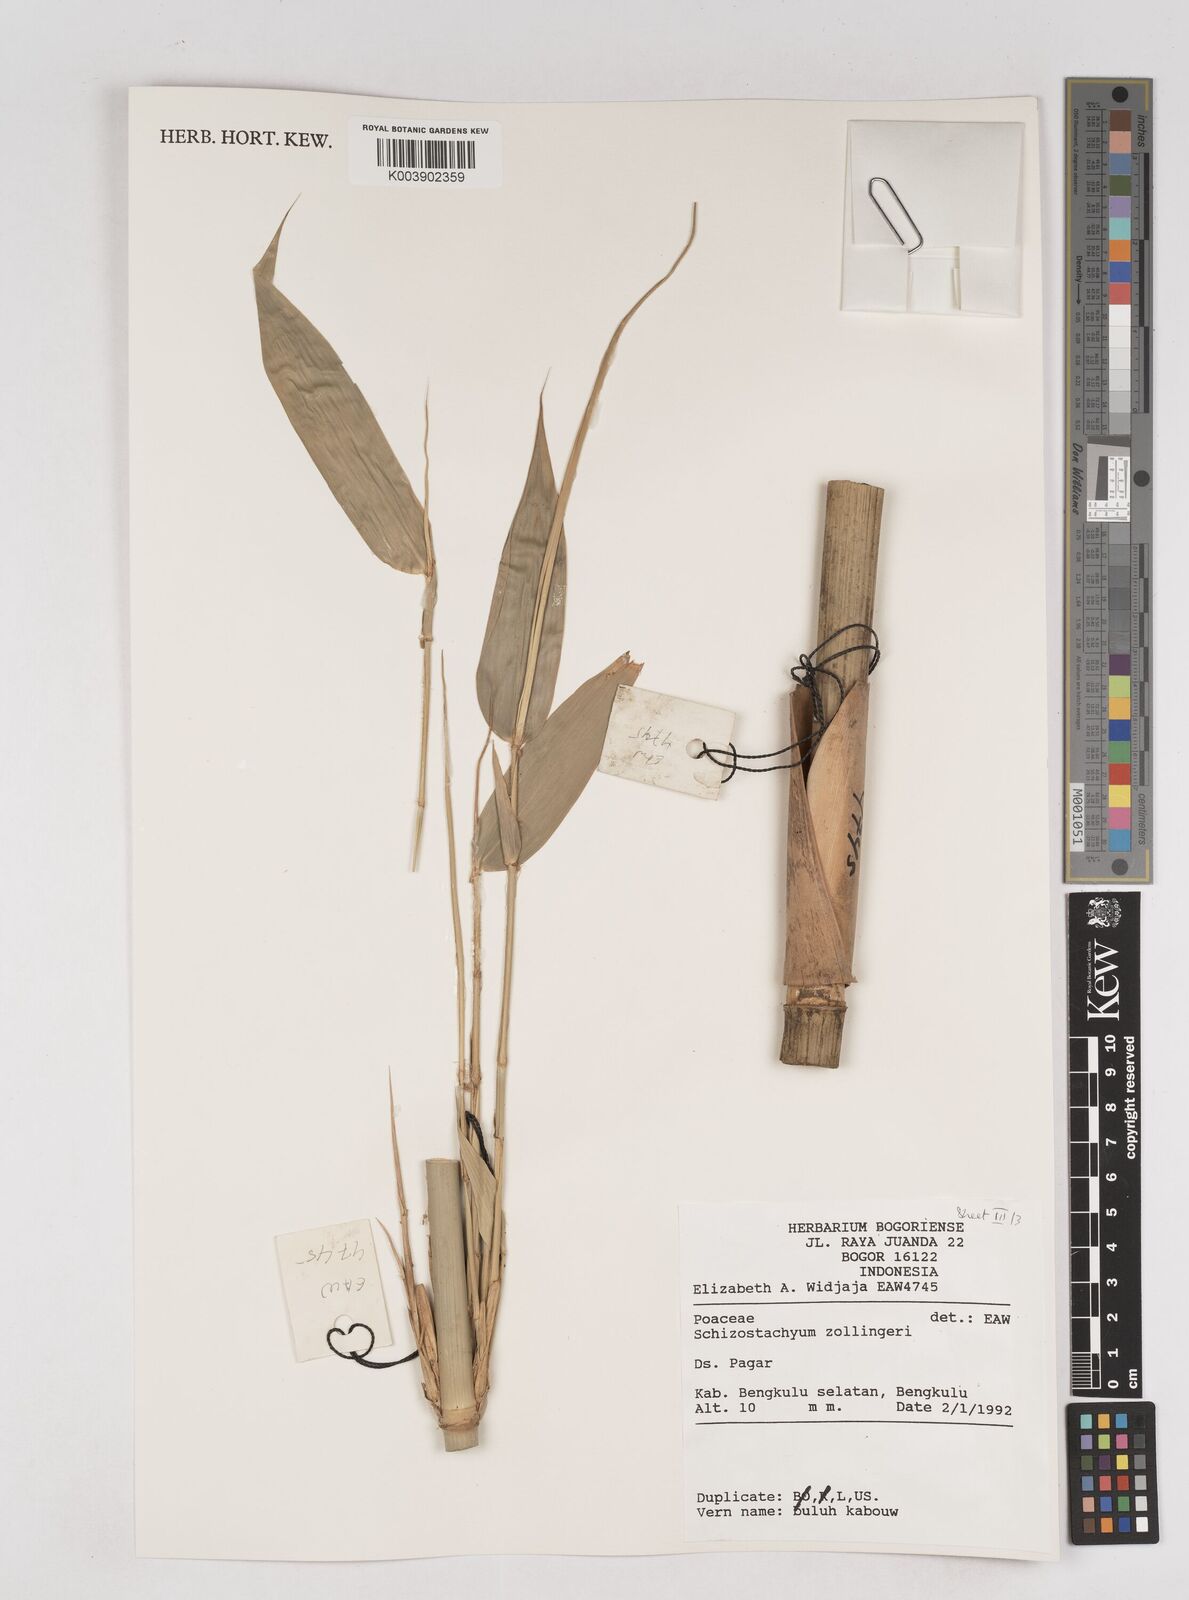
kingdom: Plantae
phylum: Tracheophyta
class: Liliopsida
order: Poales
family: Poaceae
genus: Schizostachyum
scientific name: Schizostachyum zollingeri
